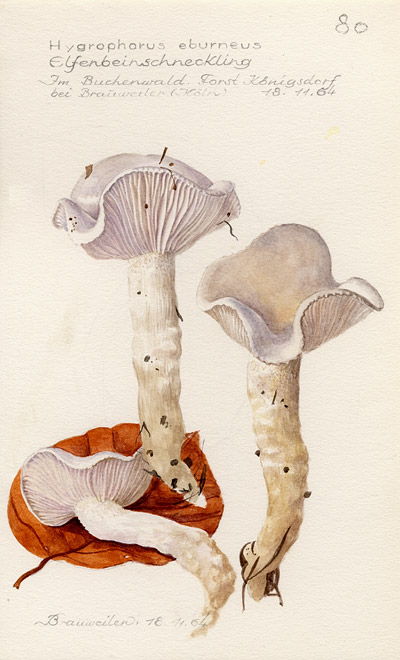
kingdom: Fungi
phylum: Basidiomycota
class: Agaricomycetes
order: Agaricales
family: Hygrophoraceae
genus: Hygrophorus
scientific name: Hygrophorus eburneus
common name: Ivory wax-cap
